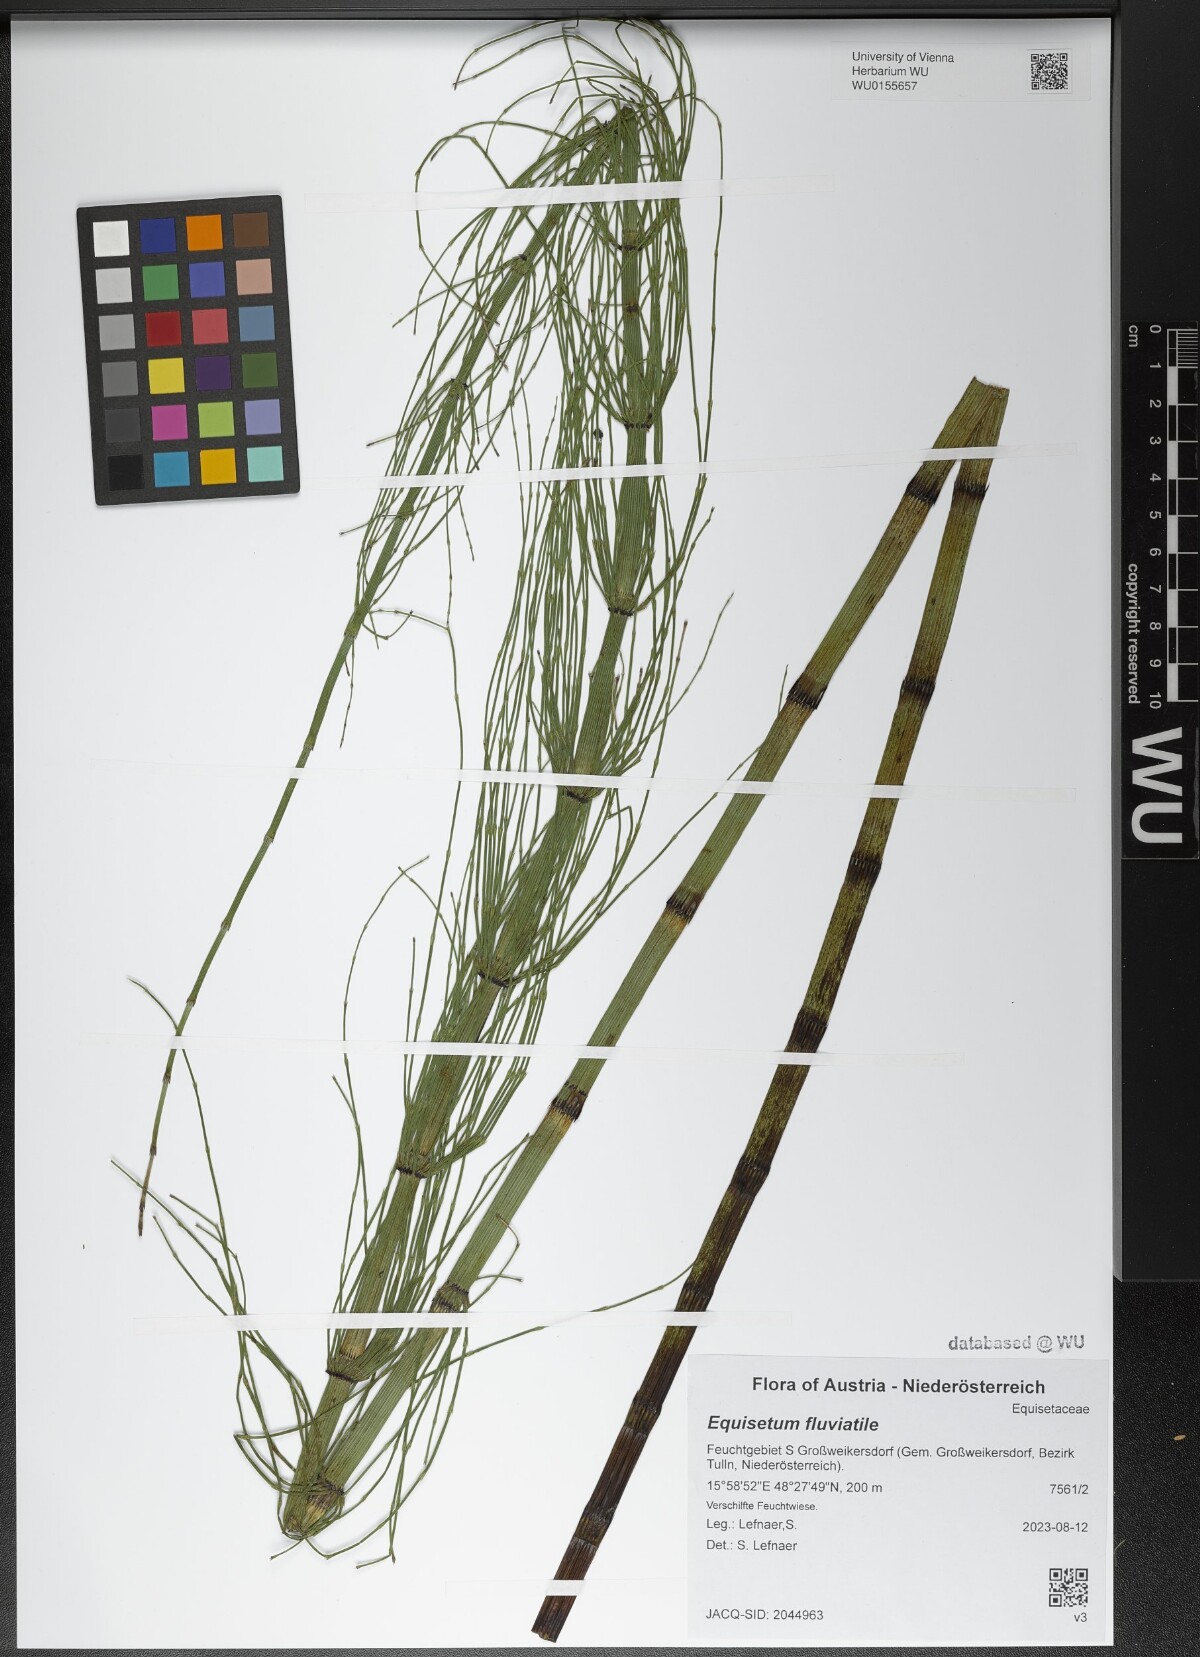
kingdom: Plantae
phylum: Tracheophyta
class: Polypodiopsida
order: Equisetales
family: Equisetaceae
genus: Equisetum
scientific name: Equisetum fluviatile
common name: Water horsetail
